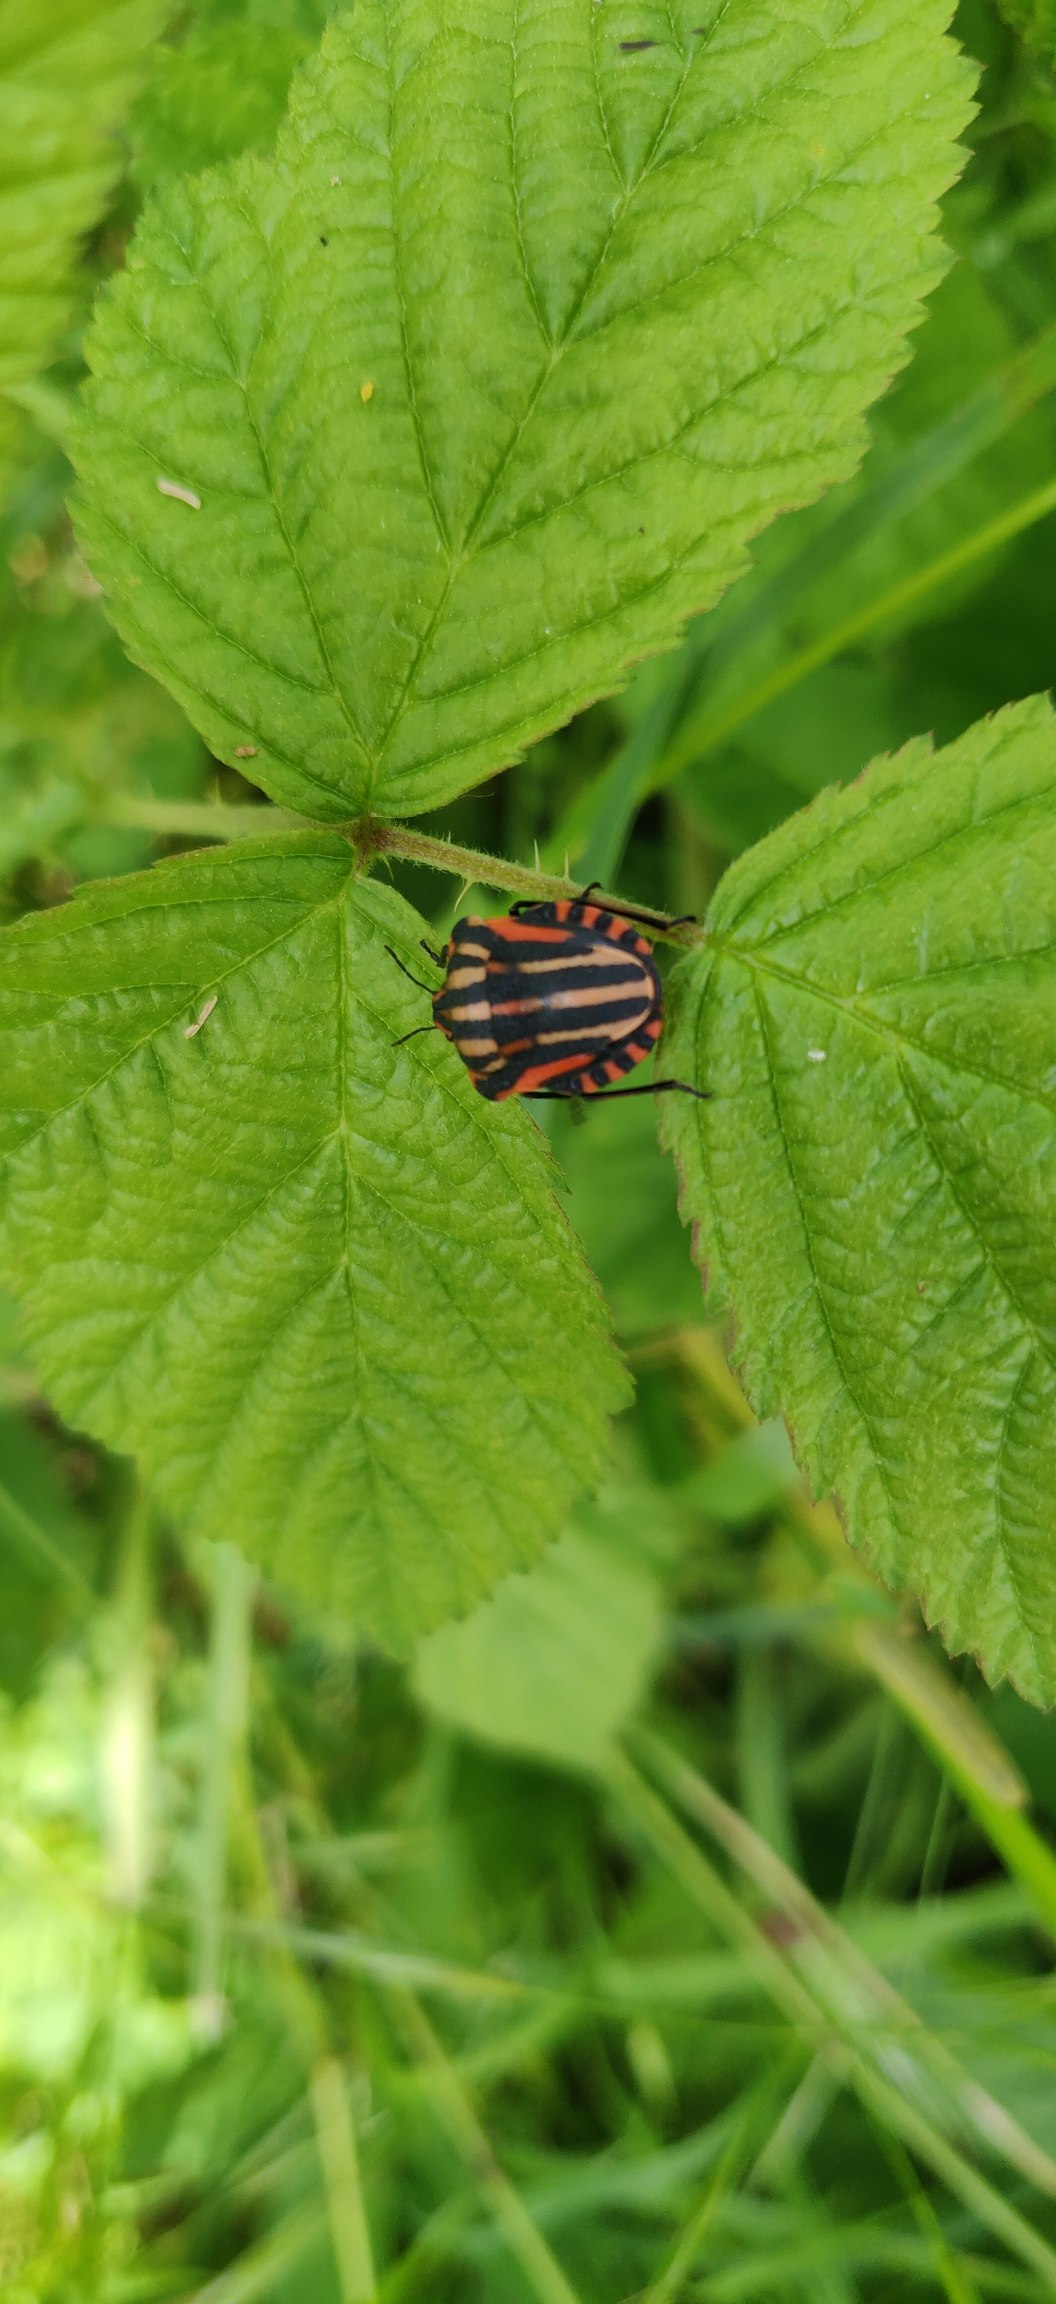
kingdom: Animalia
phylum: Arthropoda
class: Insecta
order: Hemiptera
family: Pentatomidae
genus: Graphosoma
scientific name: Graphosoma italicum
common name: Stribetæge
